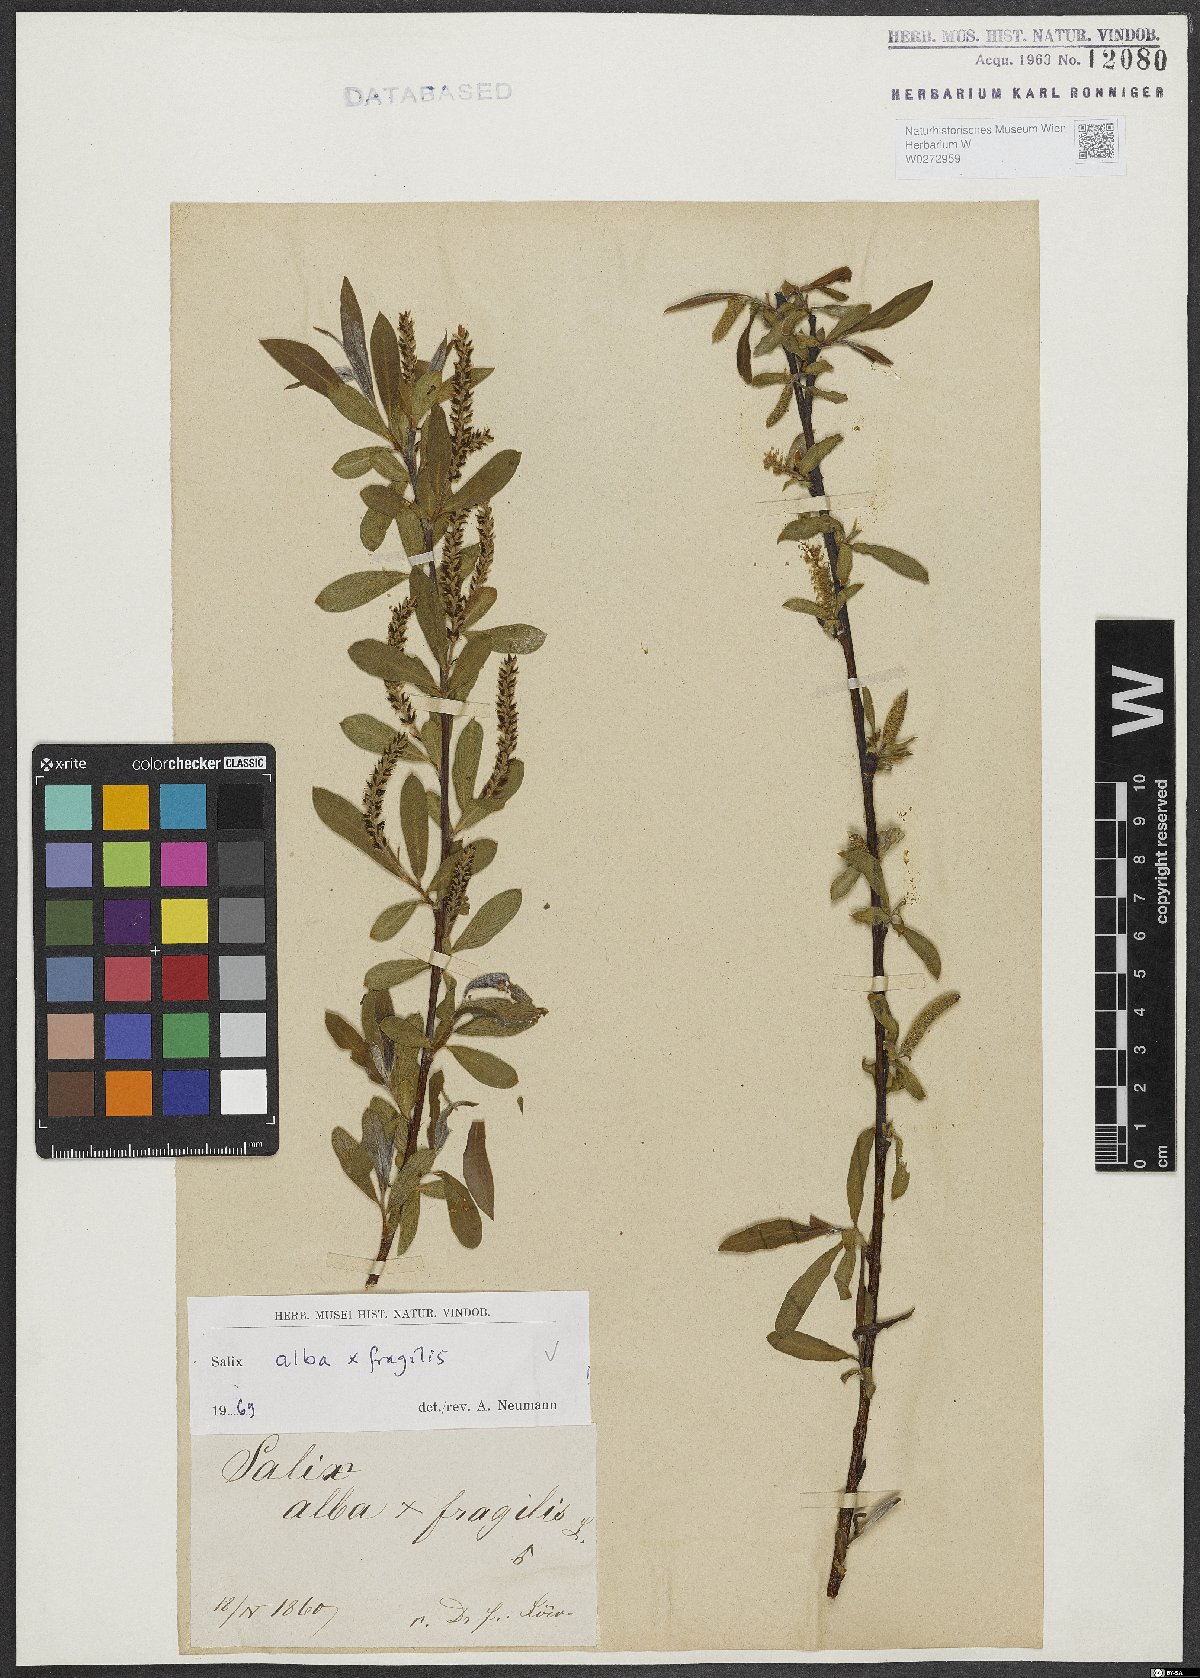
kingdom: Plantae
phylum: Tracheophyta
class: Magnoliopsida
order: Malpighiales
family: Salicaceae
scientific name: Salicaceae
